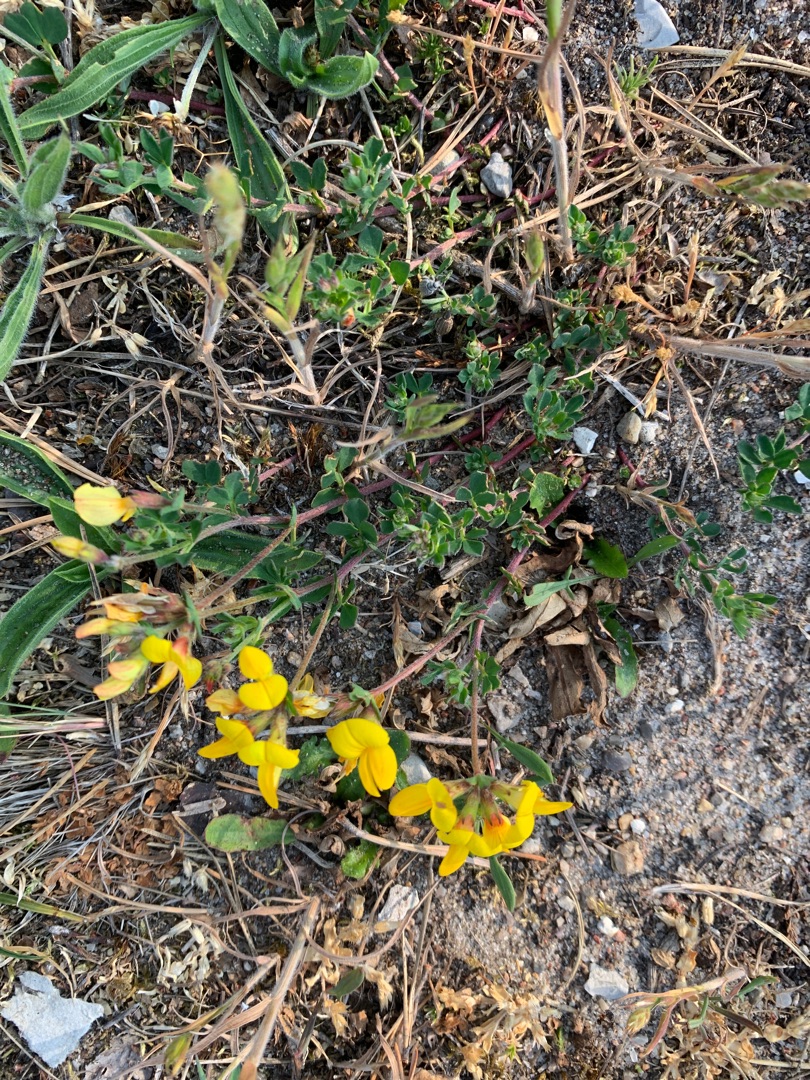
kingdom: Plantae
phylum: Tracheophyta
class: Magnoliopsida
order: Fabales
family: Fabaceae
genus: Lotus
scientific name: Lotus corniculatus
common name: Almindelig kællingetand
